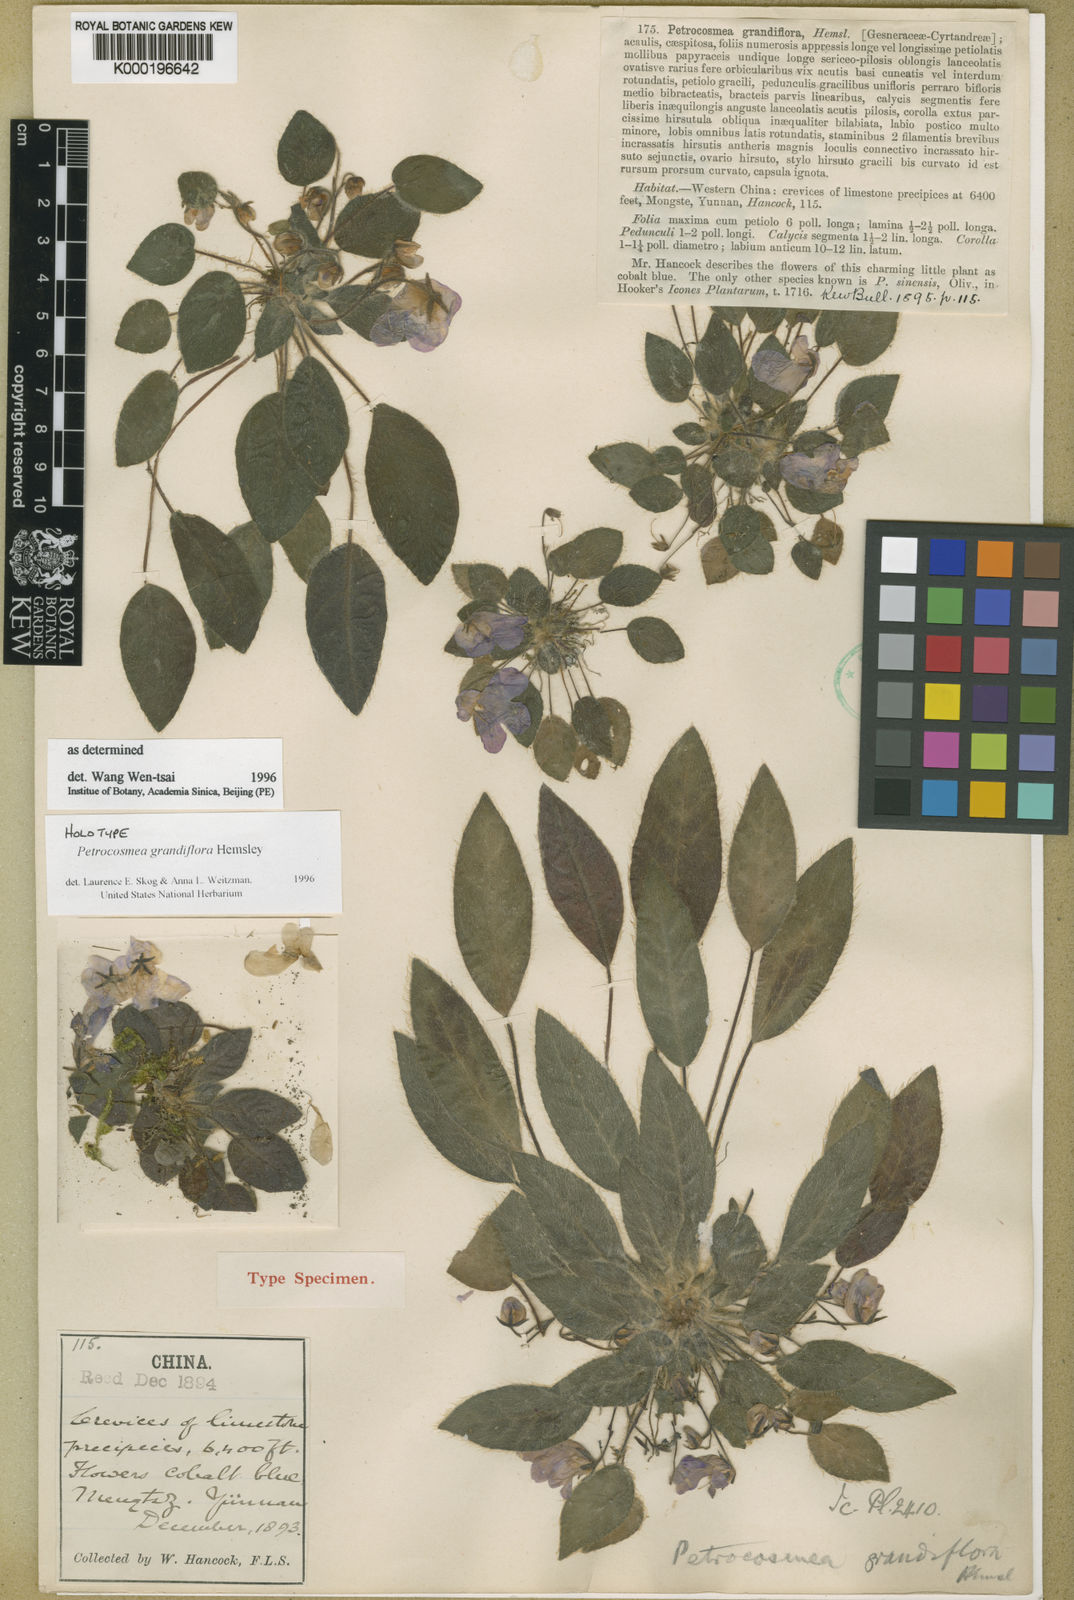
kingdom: Plantae
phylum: Tracheophyta
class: Magnoliopsida
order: Lamiales
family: Gesneriaceae
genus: Petrocosmea
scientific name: Petrocosmea grandiflora
